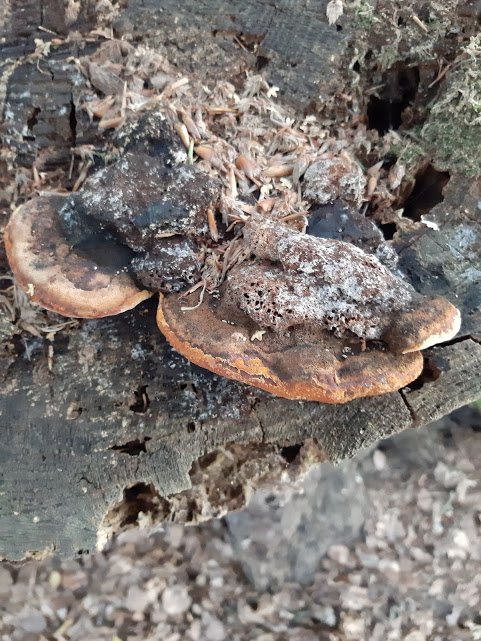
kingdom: Fungi
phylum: Basidiomycota
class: Agaricomycetes
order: Gloeophyllales
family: Gloeophyllaceae
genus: Gloeophyllum
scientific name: Gloeophyllum odoratum
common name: duftende korkhat
